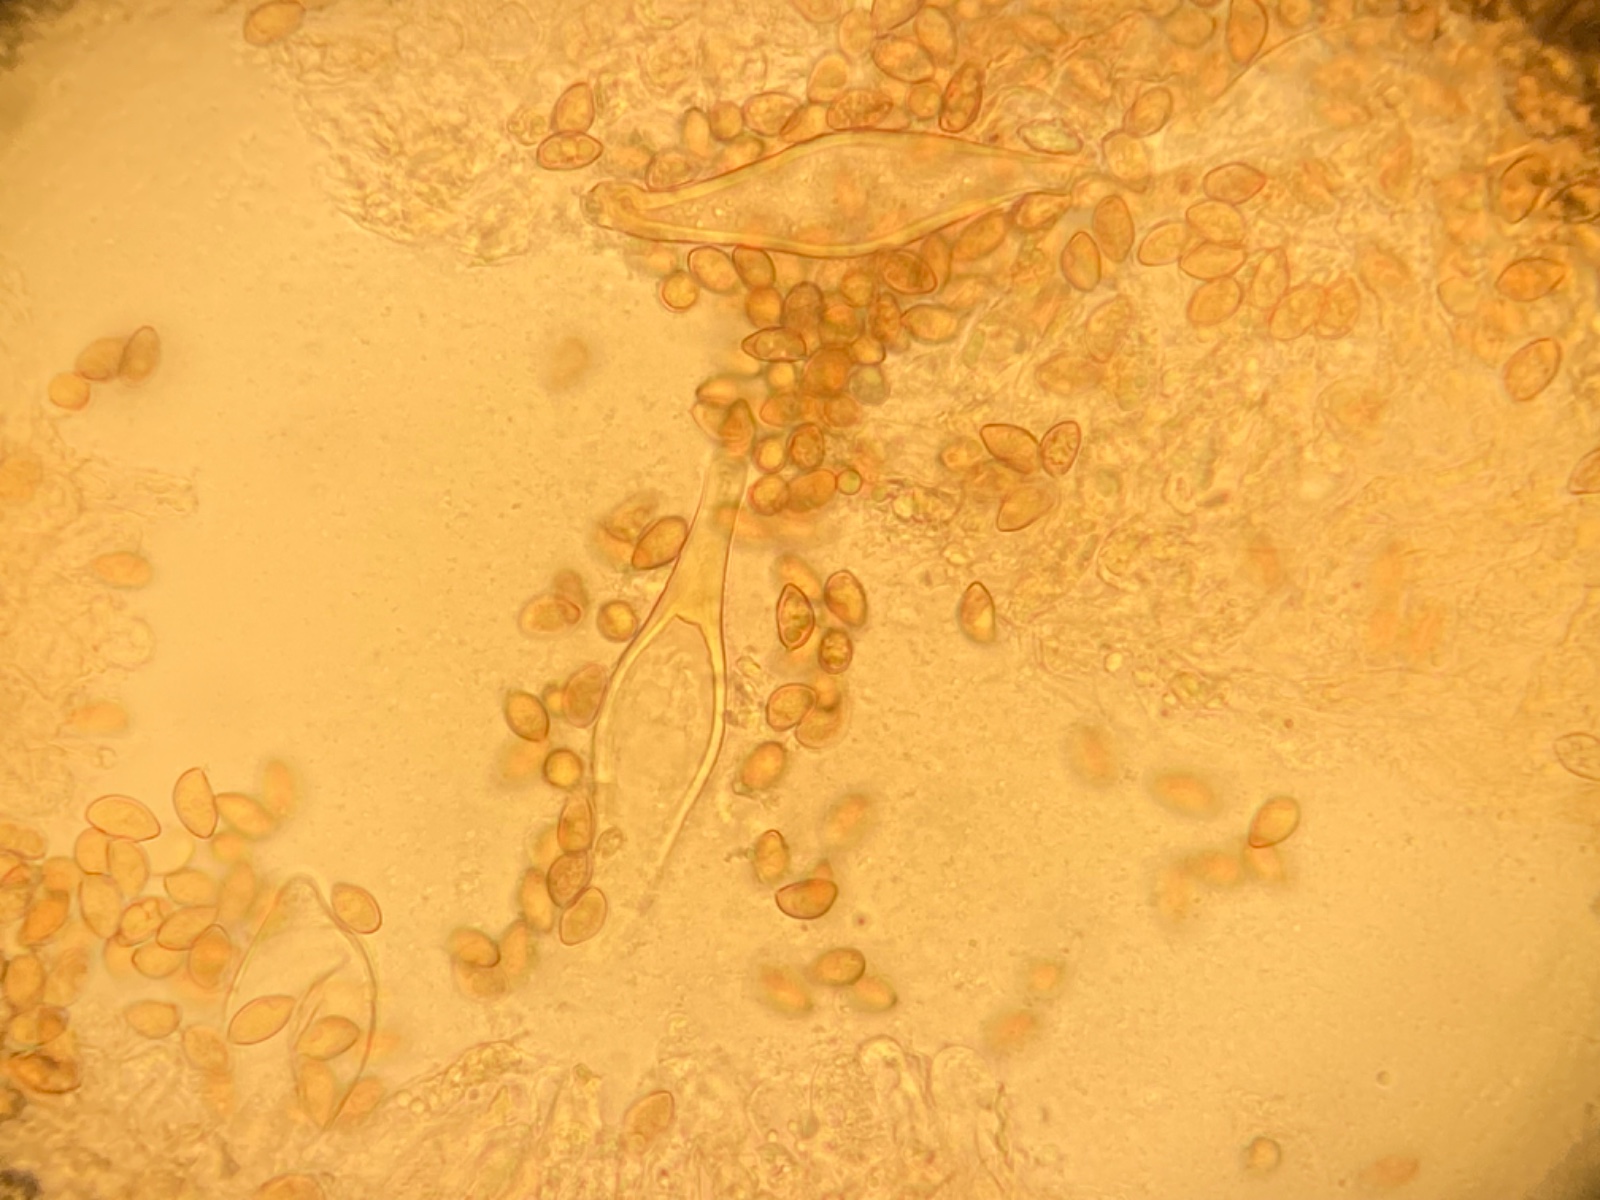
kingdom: Fungi
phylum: Basidiomycota
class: Agaricomycetes
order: Agaricales
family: Inocybaceae
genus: Inocybe
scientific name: Inocybe cincinnata
